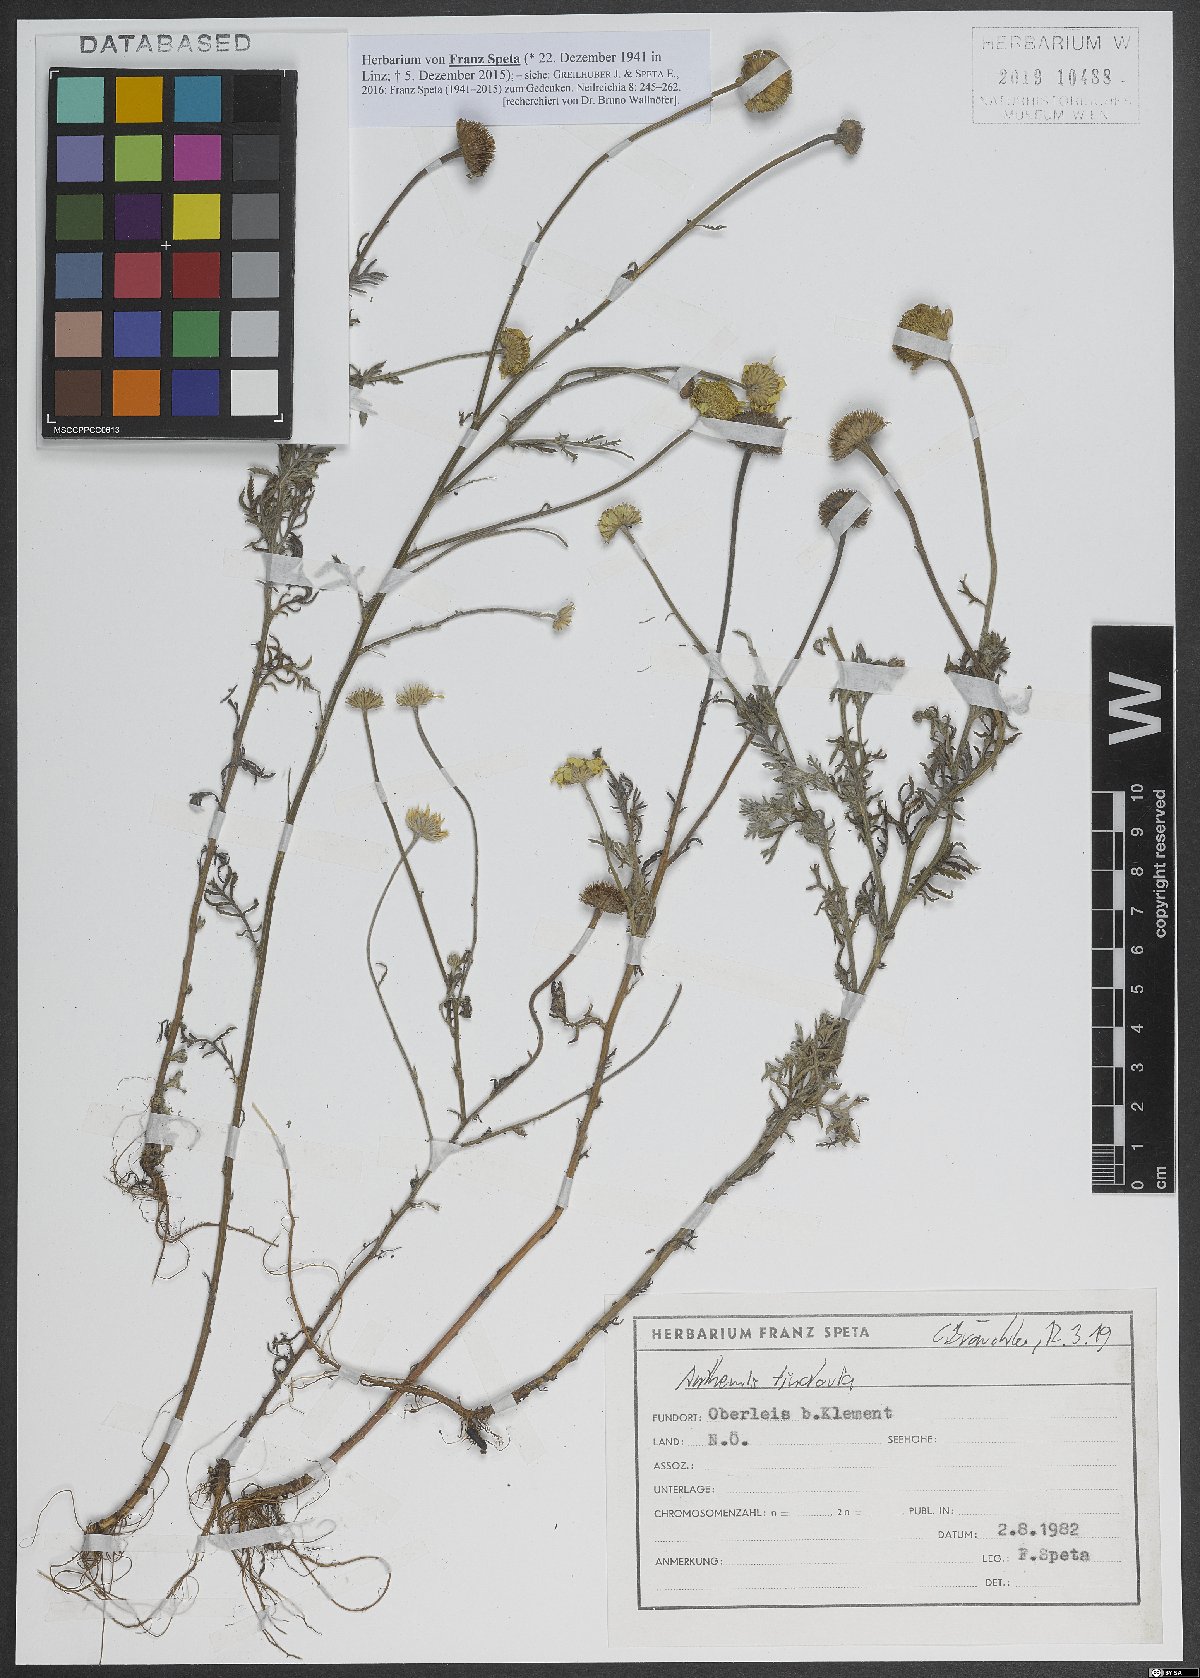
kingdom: Plantae
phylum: Tracheophyta
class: Magnoliopsida
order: Asterales
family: Asteraceae
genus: Cota
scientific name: Cota tinctoria
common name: Golden chamomile
